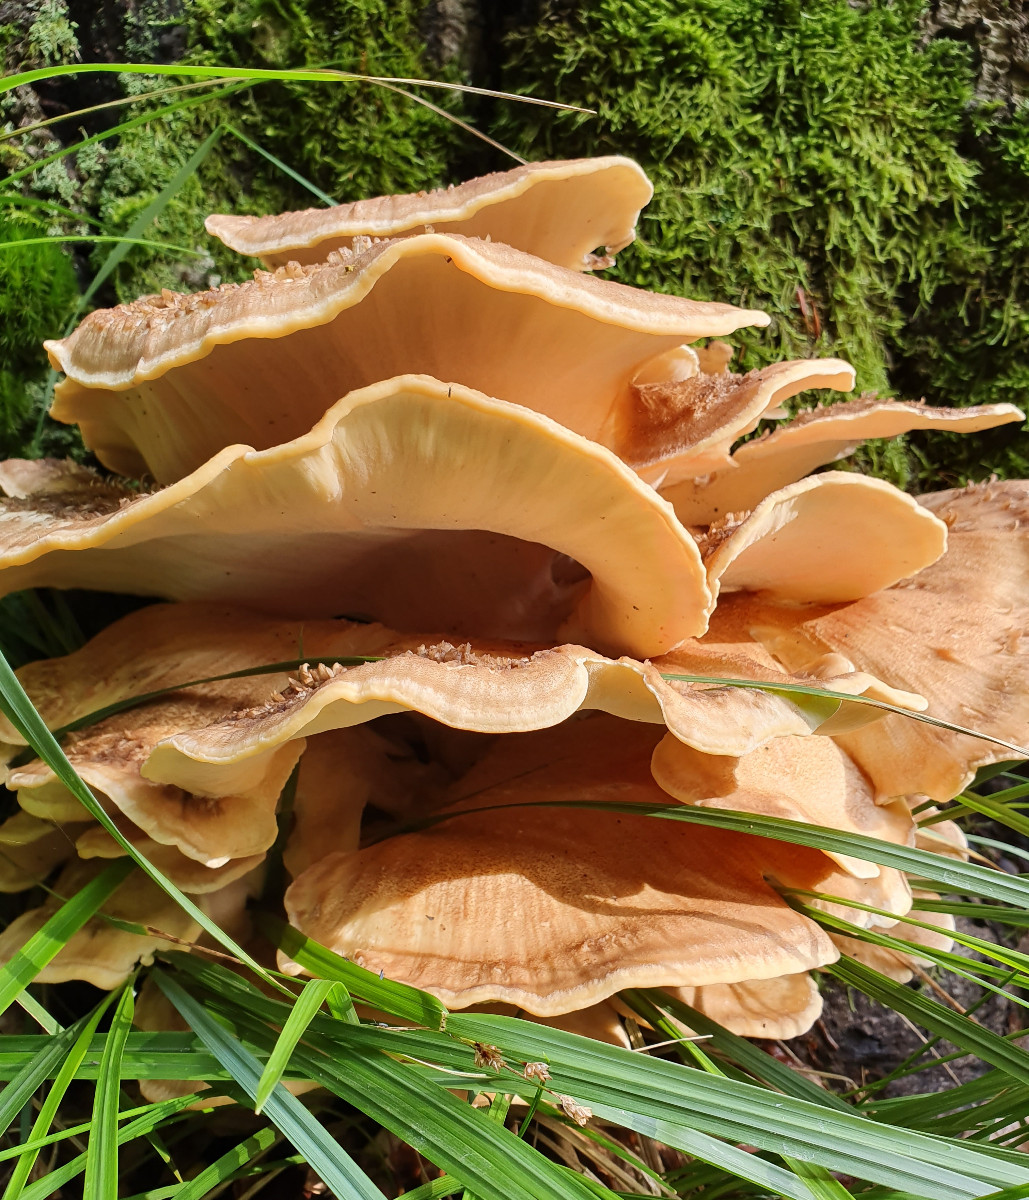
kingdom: Fungi
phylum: Basidiomycota
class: Agaricomycetes
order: Polyporales
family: Meripilaceae
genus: Meripilus
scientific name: Meripilus giganteus
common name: kæmpeporesvamp
